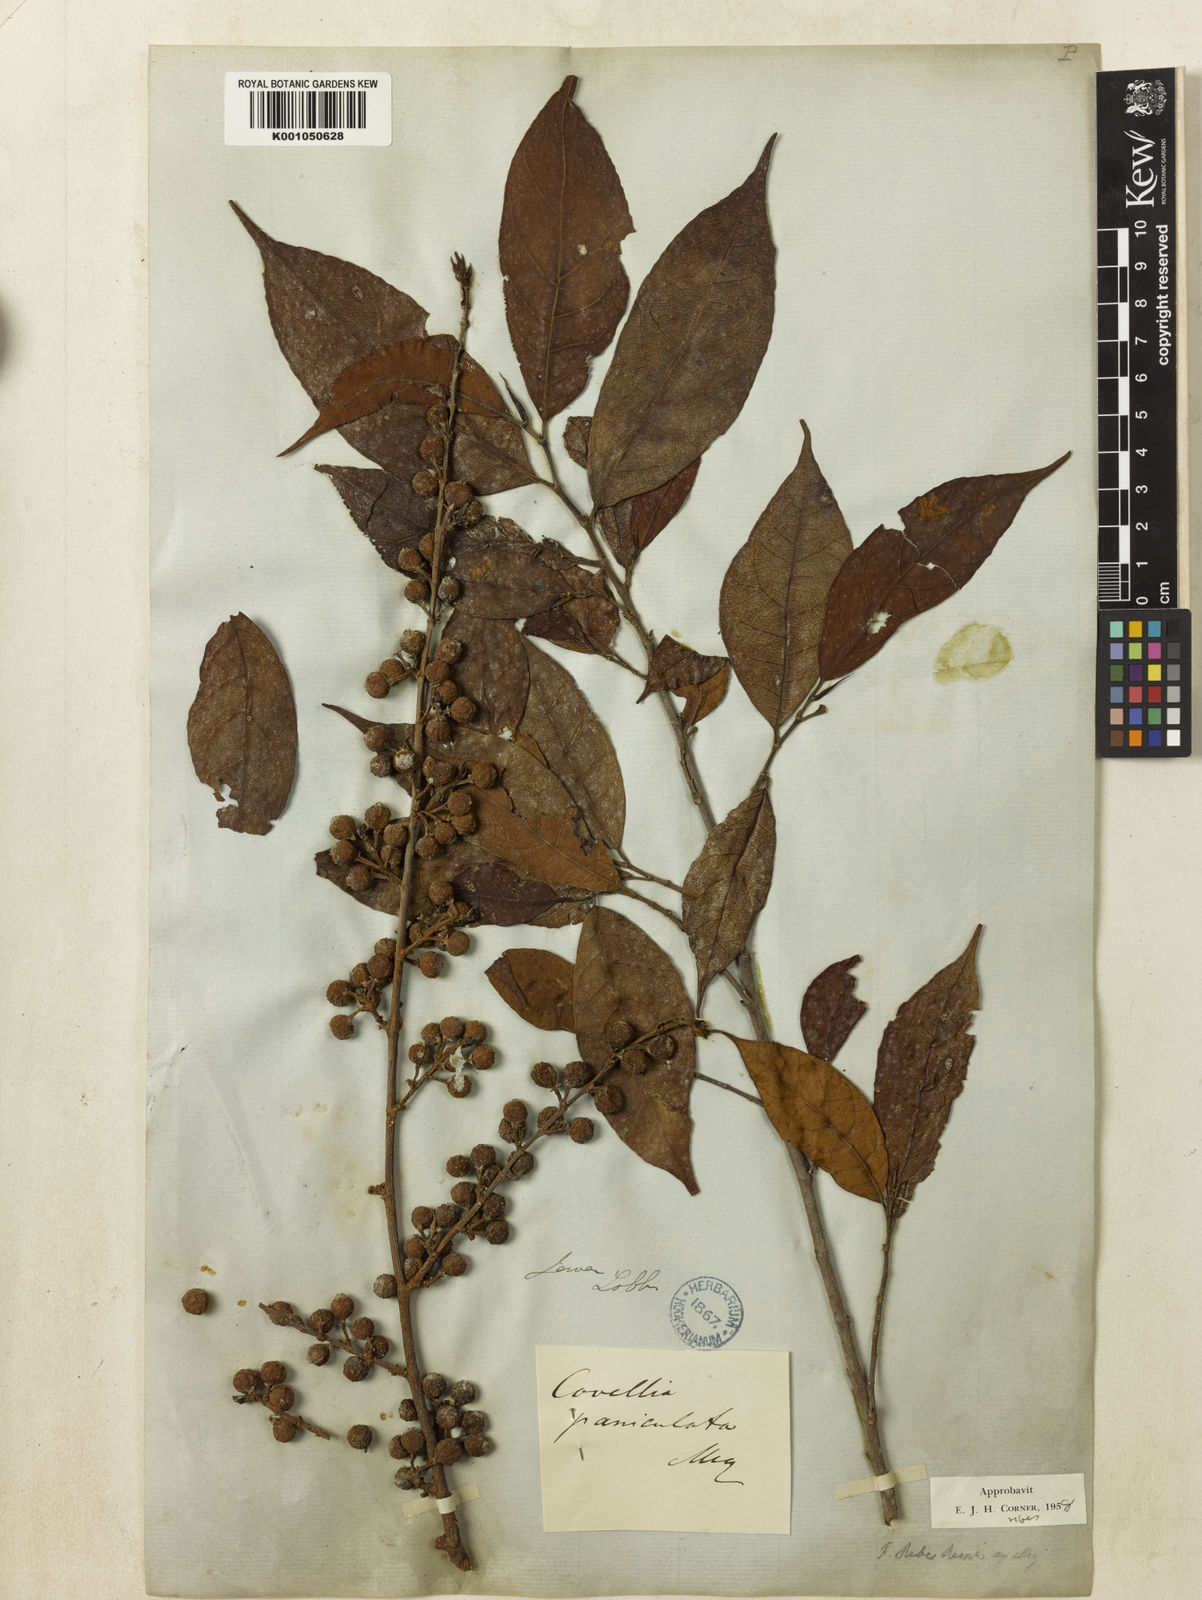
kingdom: Plantae
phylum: Tracheophyta
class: Magnoliopsida
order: Rosales
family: Moraceae
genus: Ficus
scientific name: Ficus ribes
